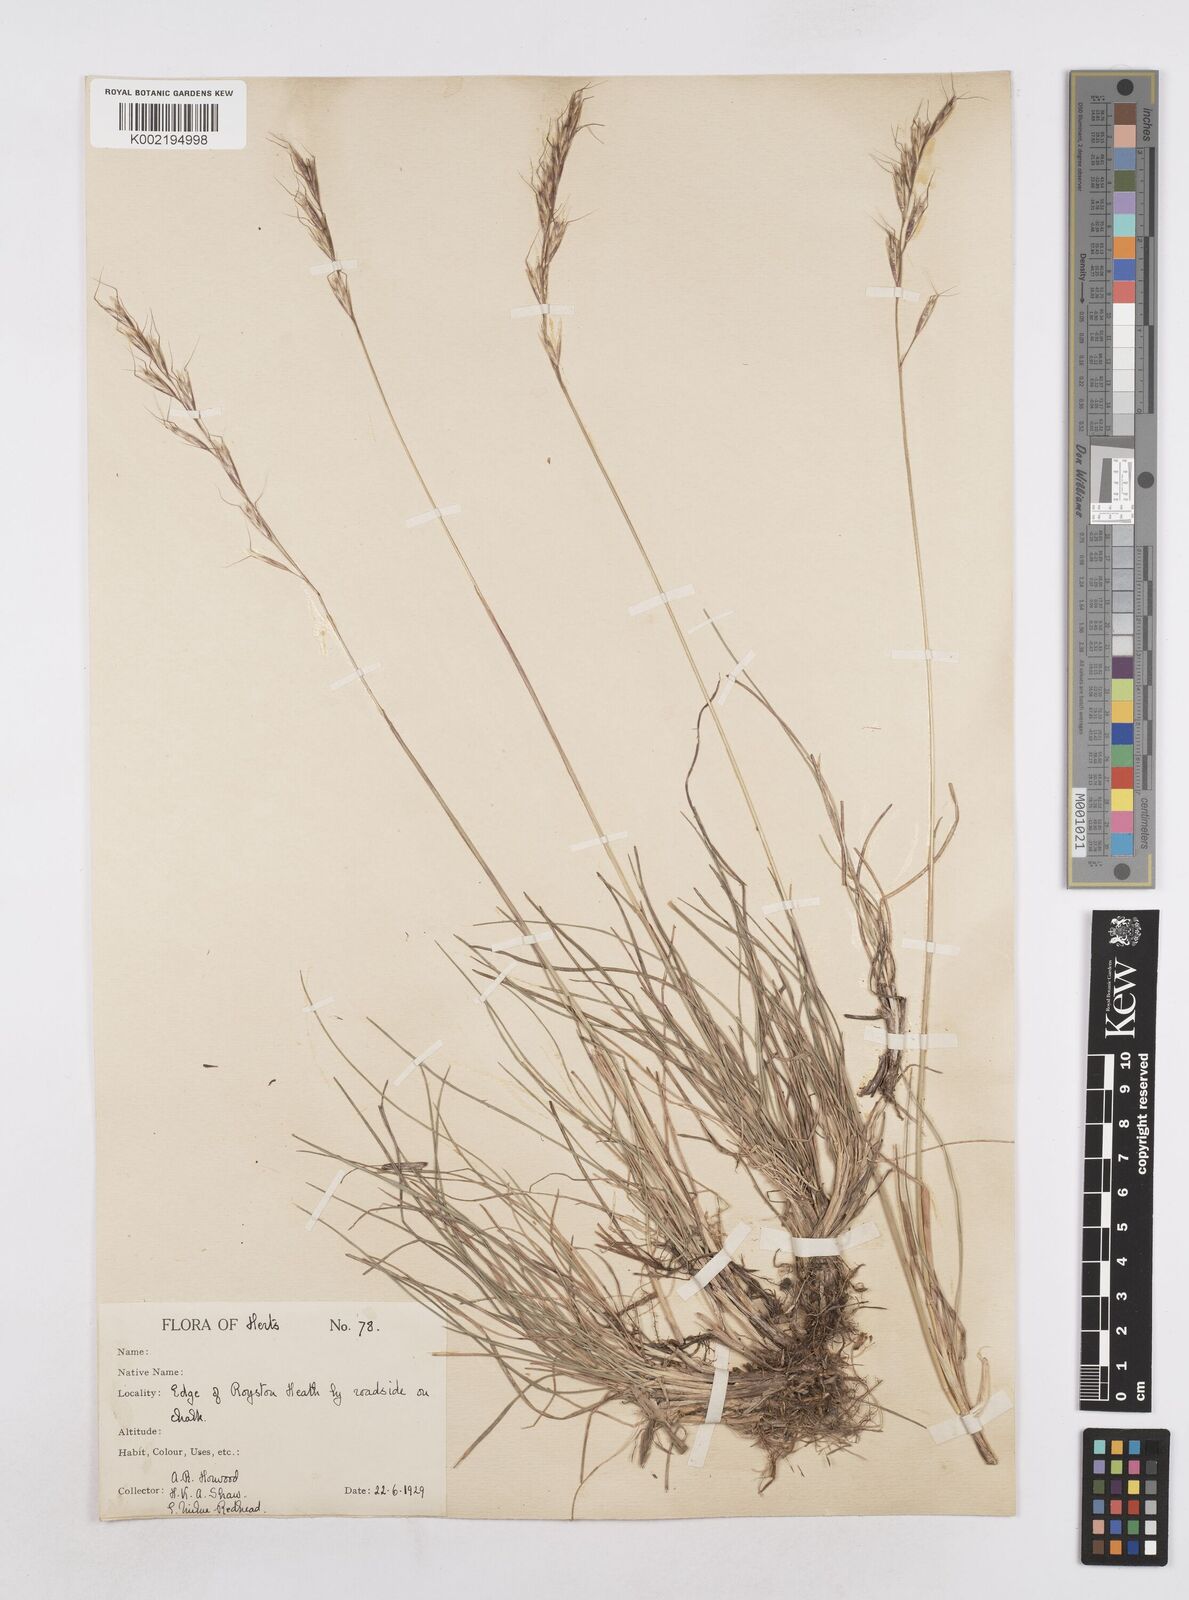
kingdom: Plantae
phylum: Tracheophyta
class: Liliopsida
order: Poales
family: Poaceae
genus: Helictochloa
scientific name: Helictochloa pratensis
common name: Meadow oat grass
